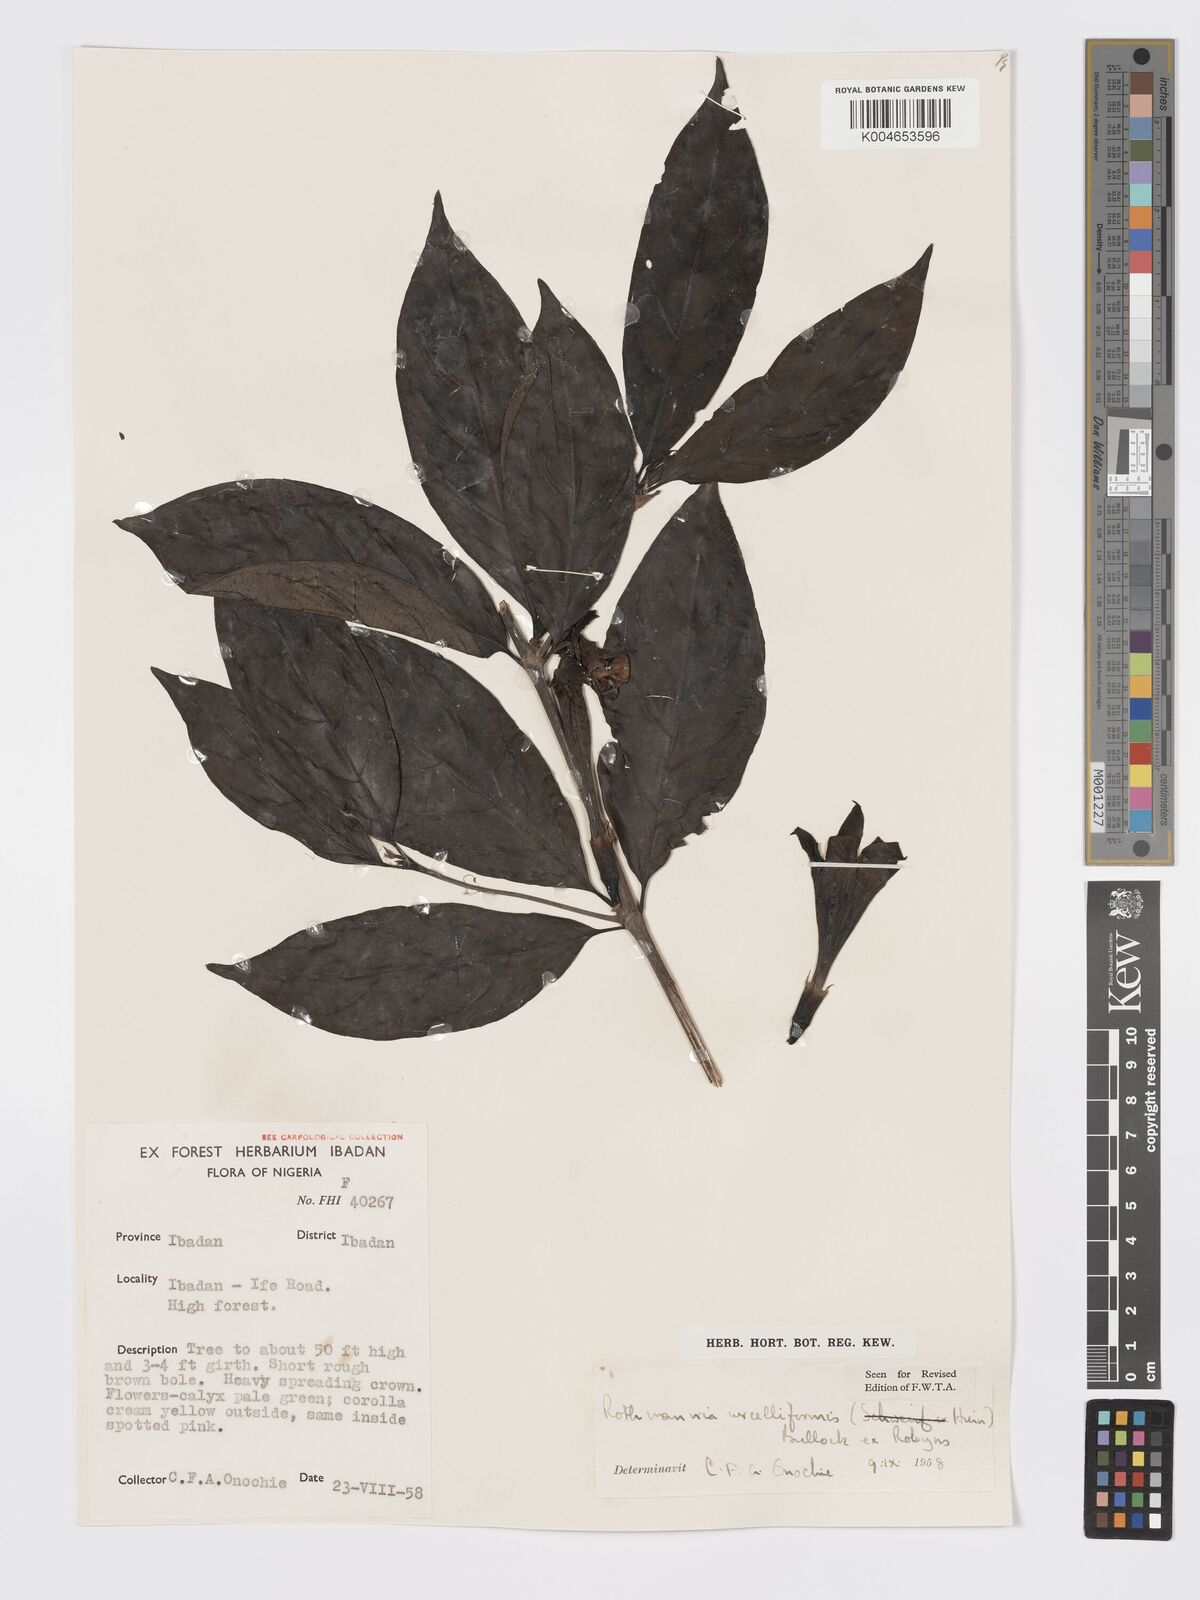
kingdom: Plantae
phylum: Tracheophyta
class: Magnoliopsida
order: Gentianales
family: Rubiaceae
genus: Rothmannia
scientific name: Rothmannia urcelliformis
